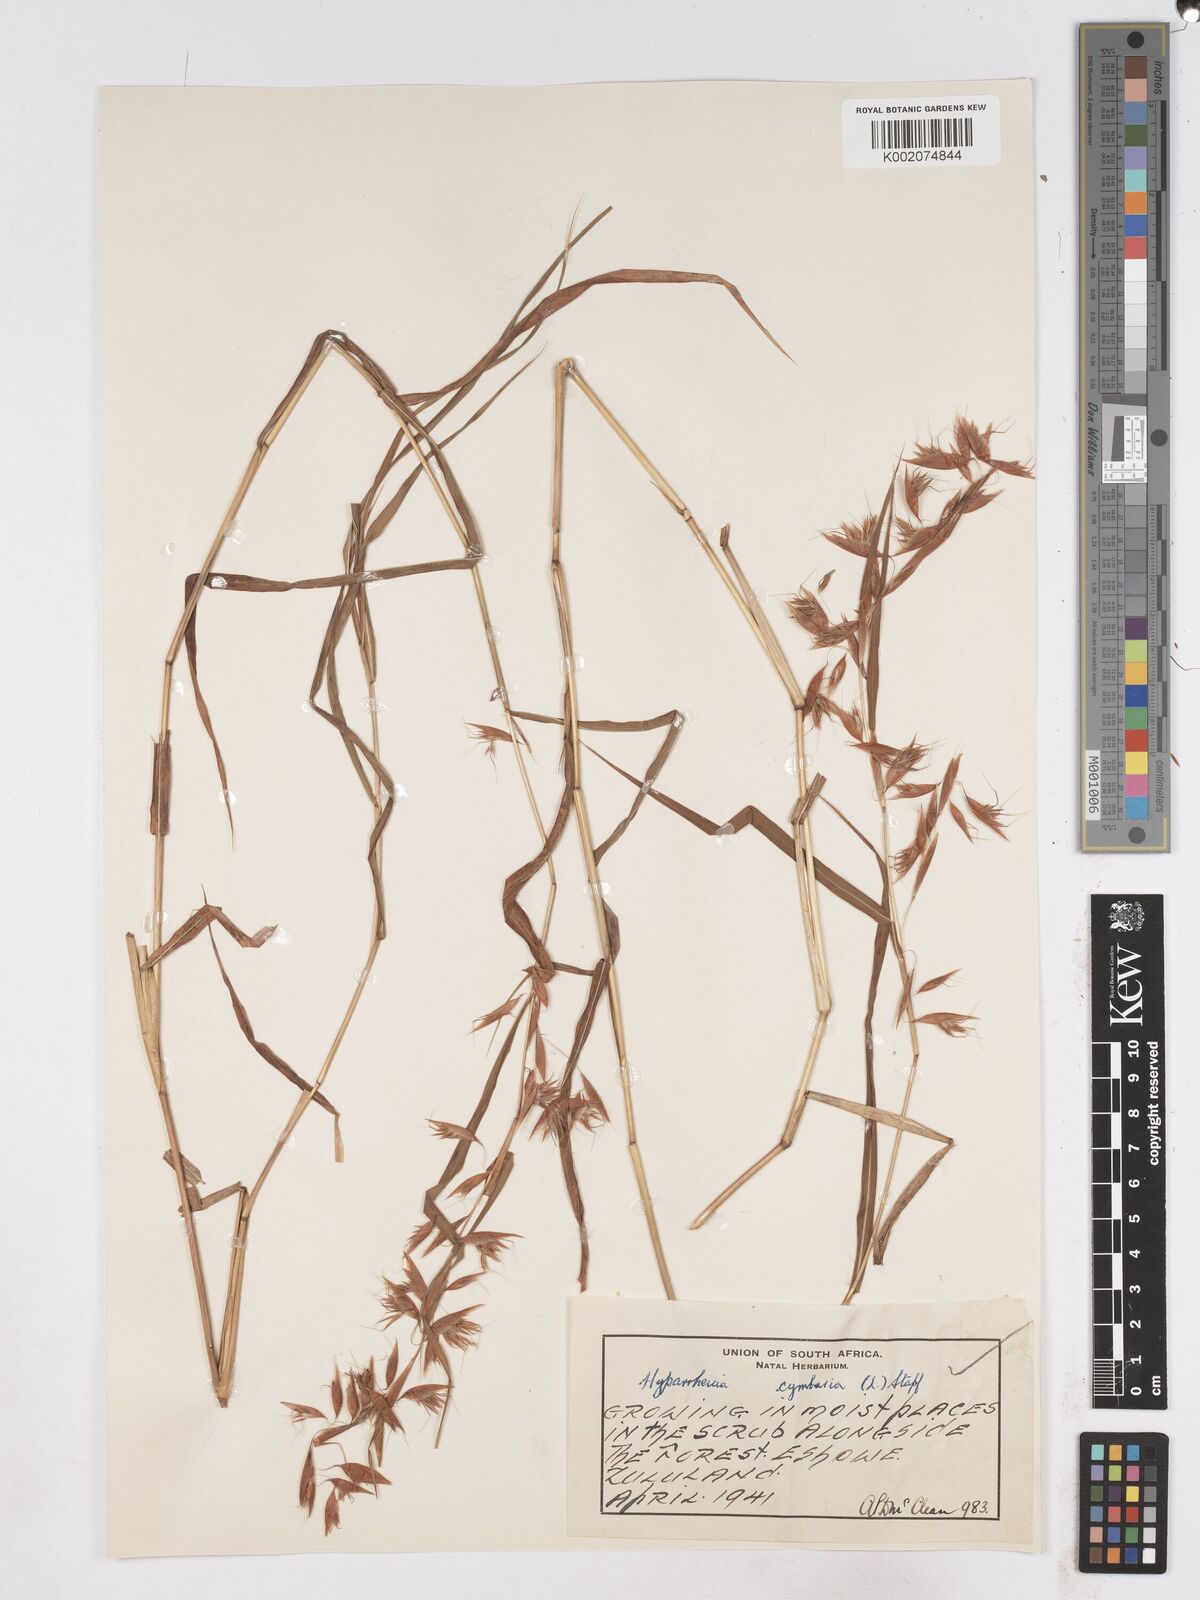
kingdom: Plantae
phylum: Tracheophyta
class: Liliopsida
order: Poales
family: Poaceae
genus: Hyparrhenia
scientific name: Hyparrhenia cymbaria
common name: Boat thatching grass
